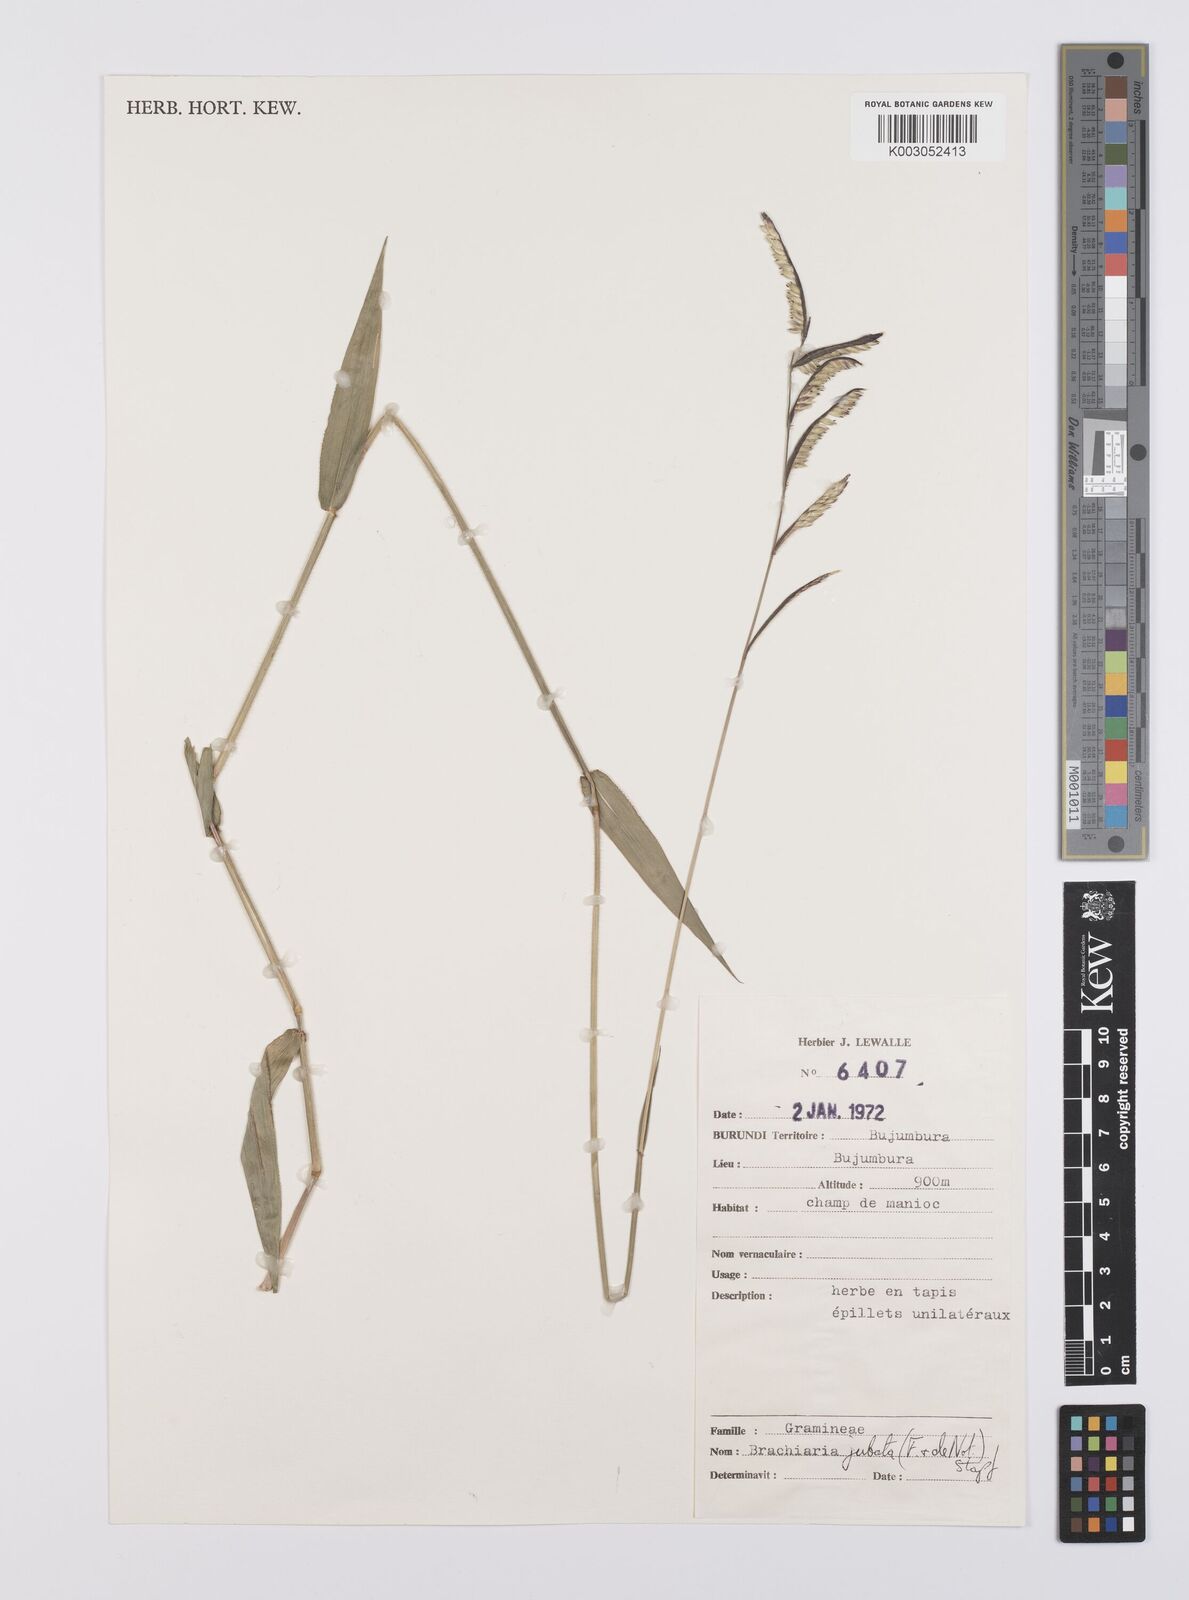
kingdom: Plantae
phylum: Tracheophyta
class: Liliopsida
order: Poales
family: Poaceae
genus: Urochloa
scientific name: Urochloa eminii
